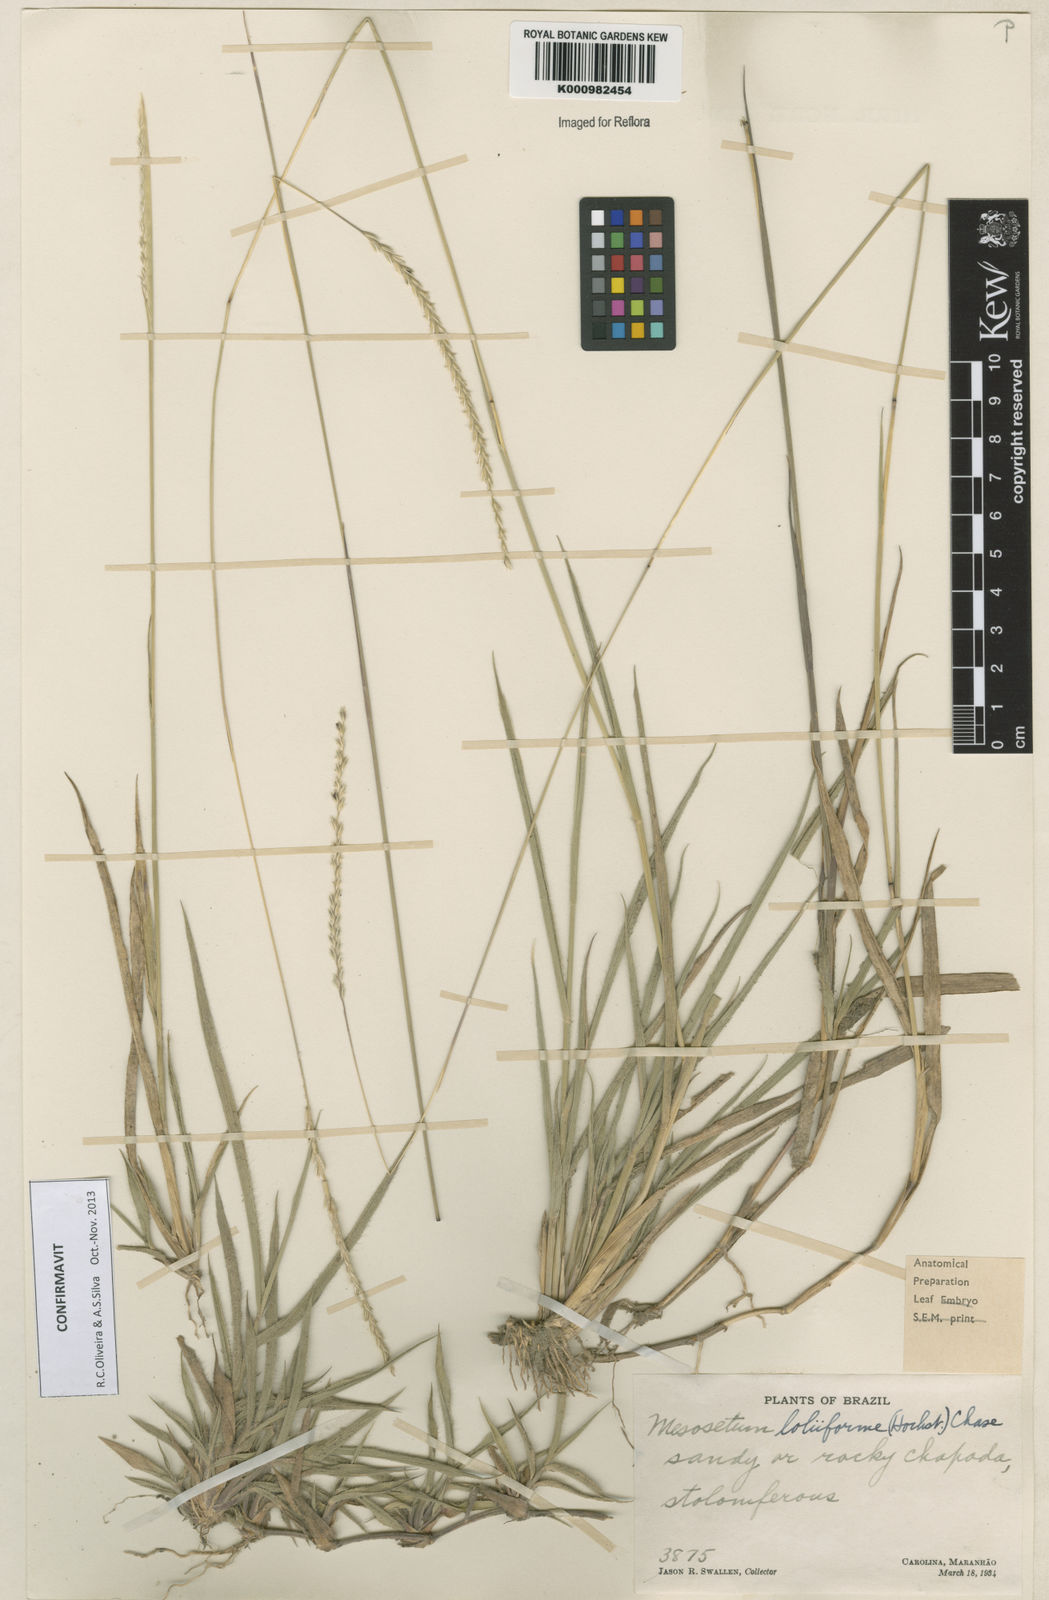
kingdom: Plantae
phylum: Tracheophyta
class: Liliopsida
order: Poales
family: Poaceae
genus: Mesosetum
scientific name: Mesosetum
